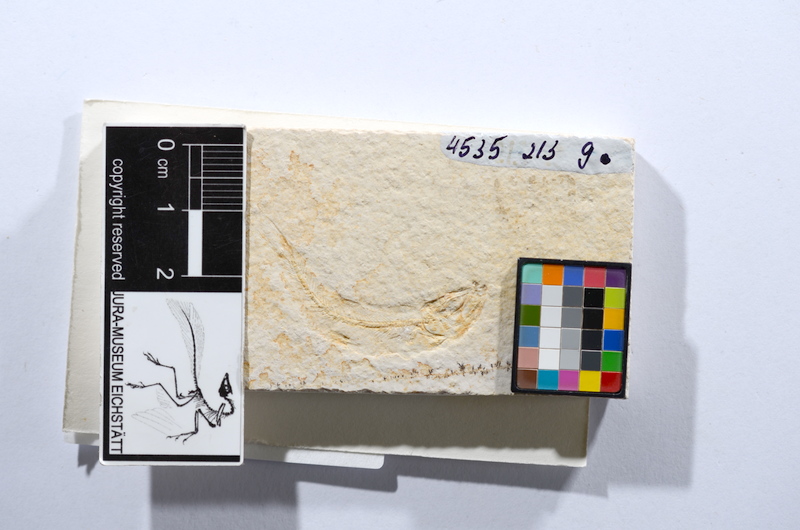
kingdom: Animalia
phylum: Chordata
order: Salmoniformes
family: Orthogonikleithridae
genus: Leptolepides
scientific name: Leptolepides sprattiformis
